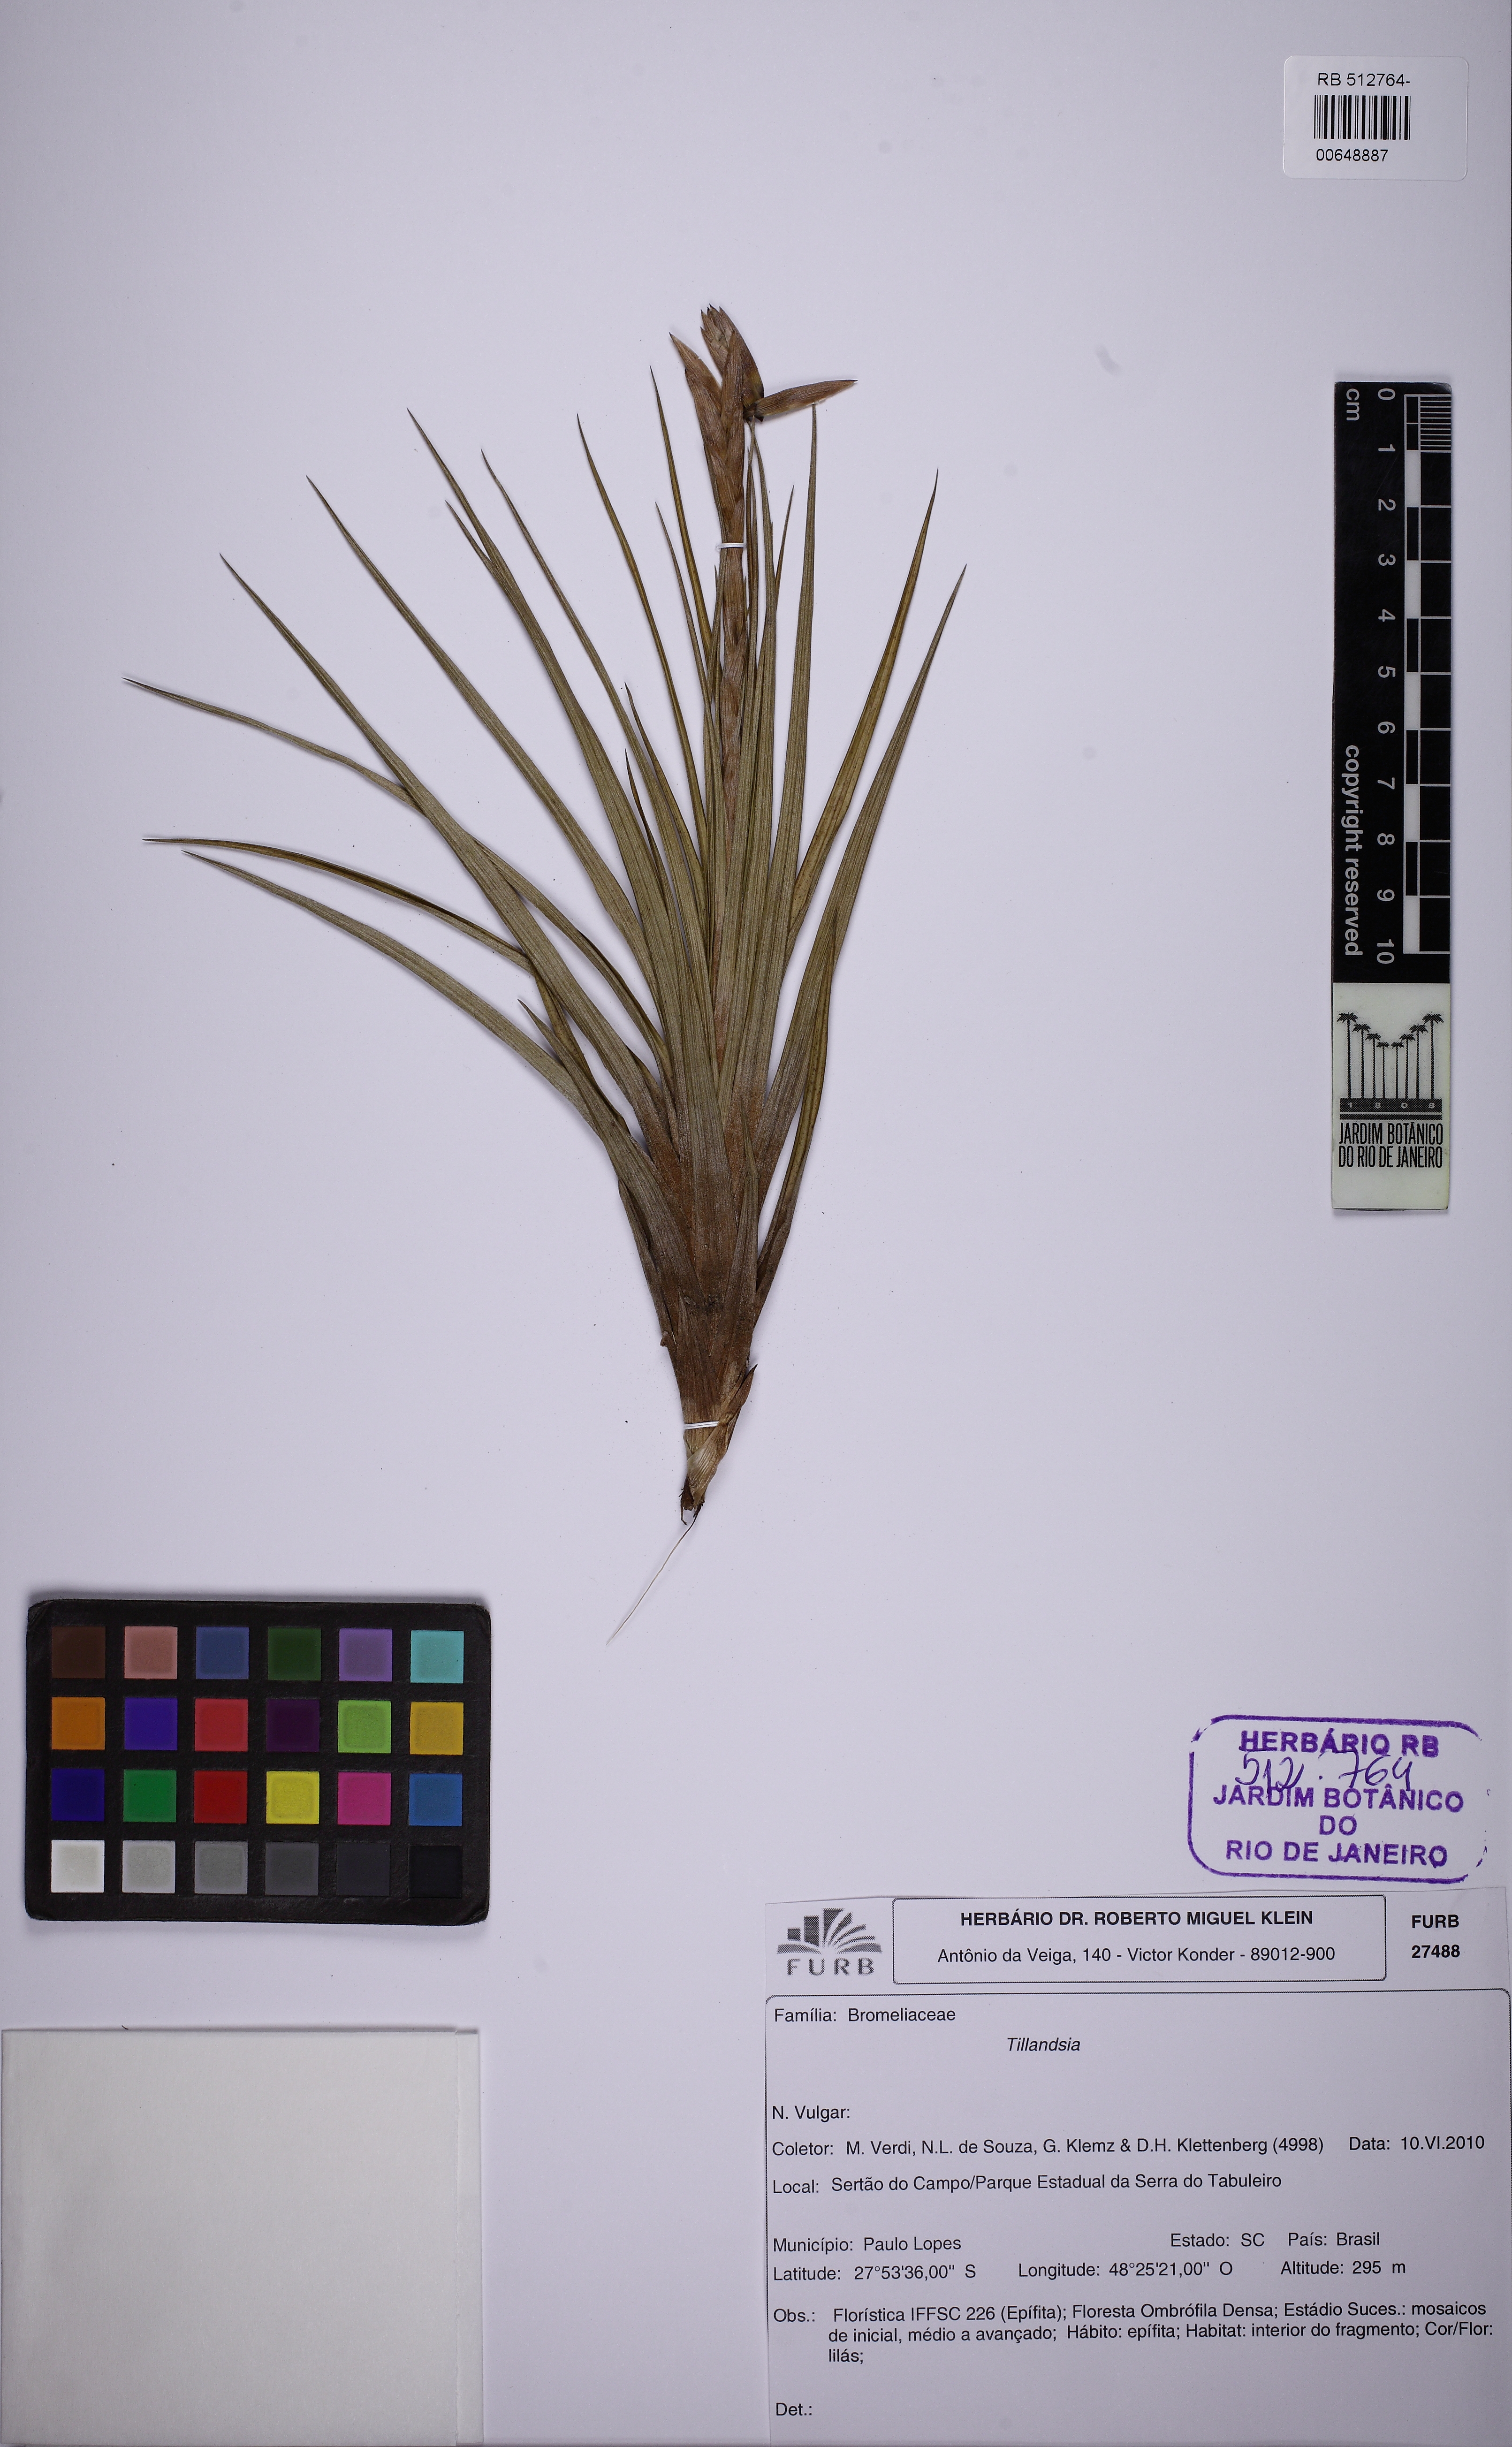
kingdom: Plantae
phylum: Tracheophyta
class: Liliopsida
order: Poales
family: Bromeliaceae
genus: Tillandsia
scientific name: Tillandsia
